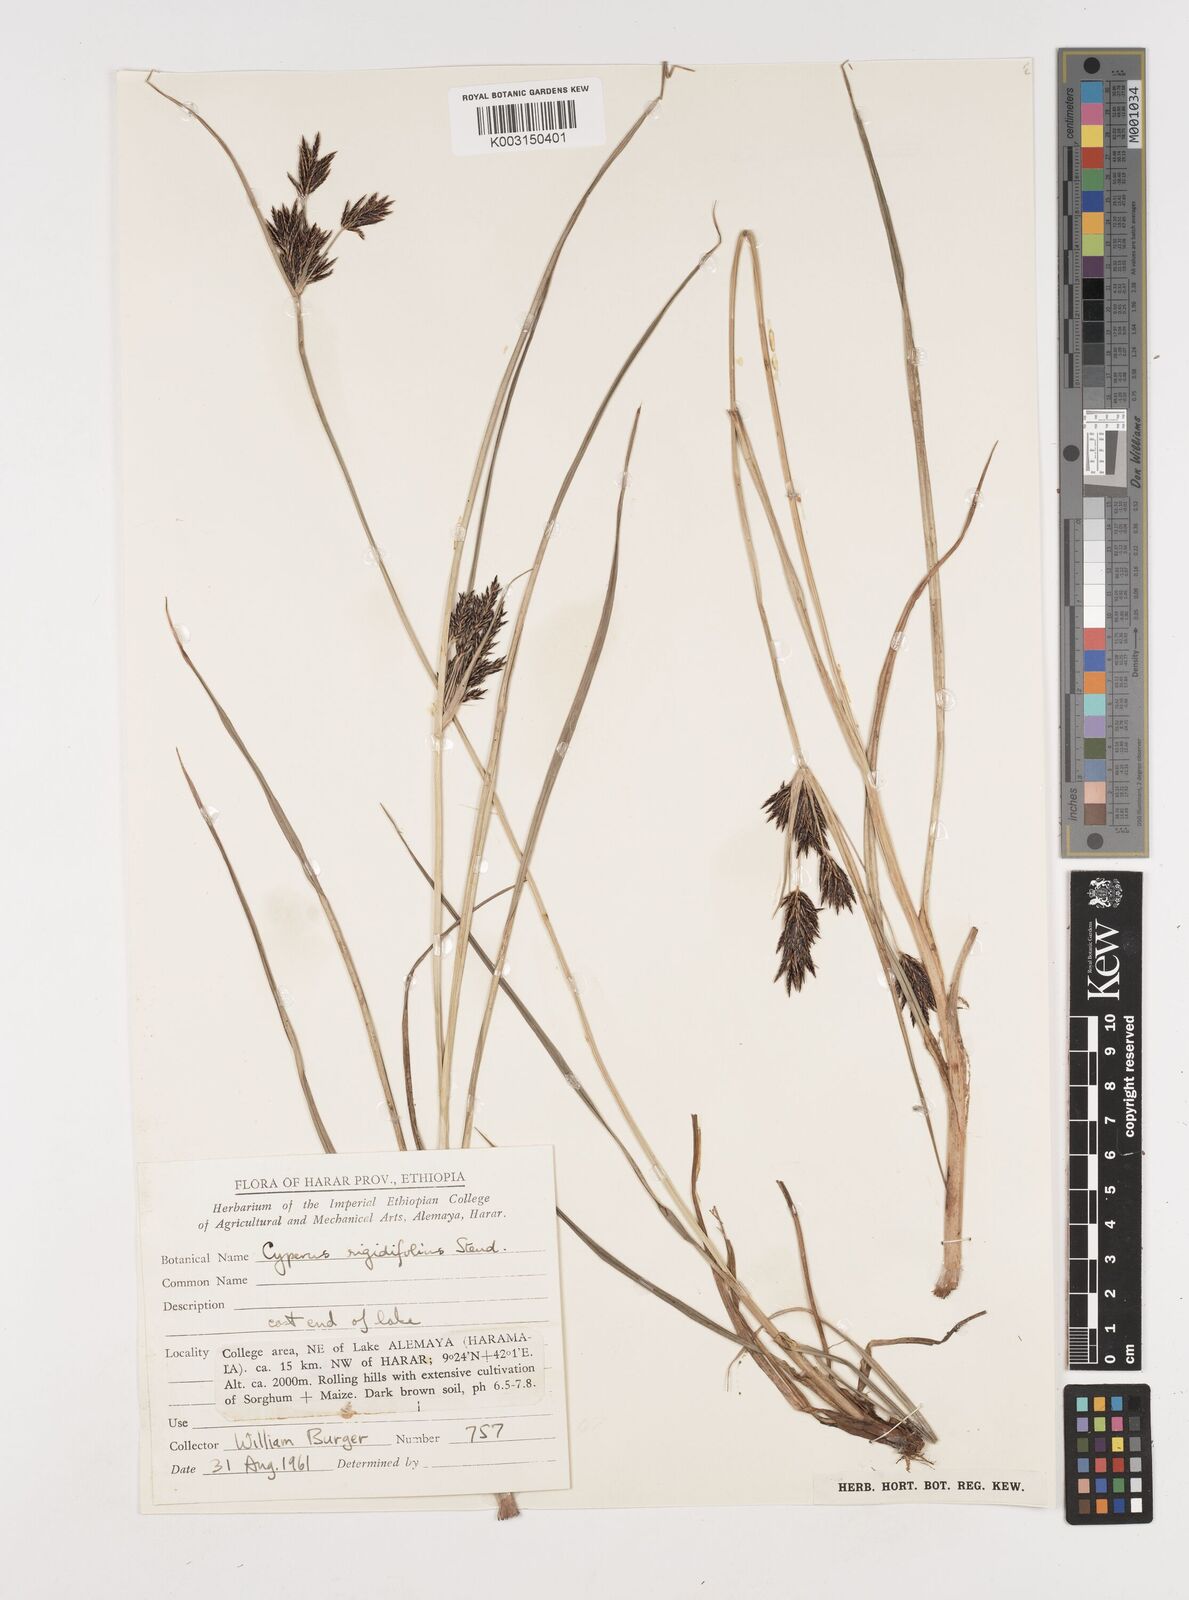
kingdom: Plantae
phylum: Tracheophyta
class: Liliopsida
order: Poales
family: Cyperaceae
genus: Cyperus
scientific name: Cyperus rigidifolius
